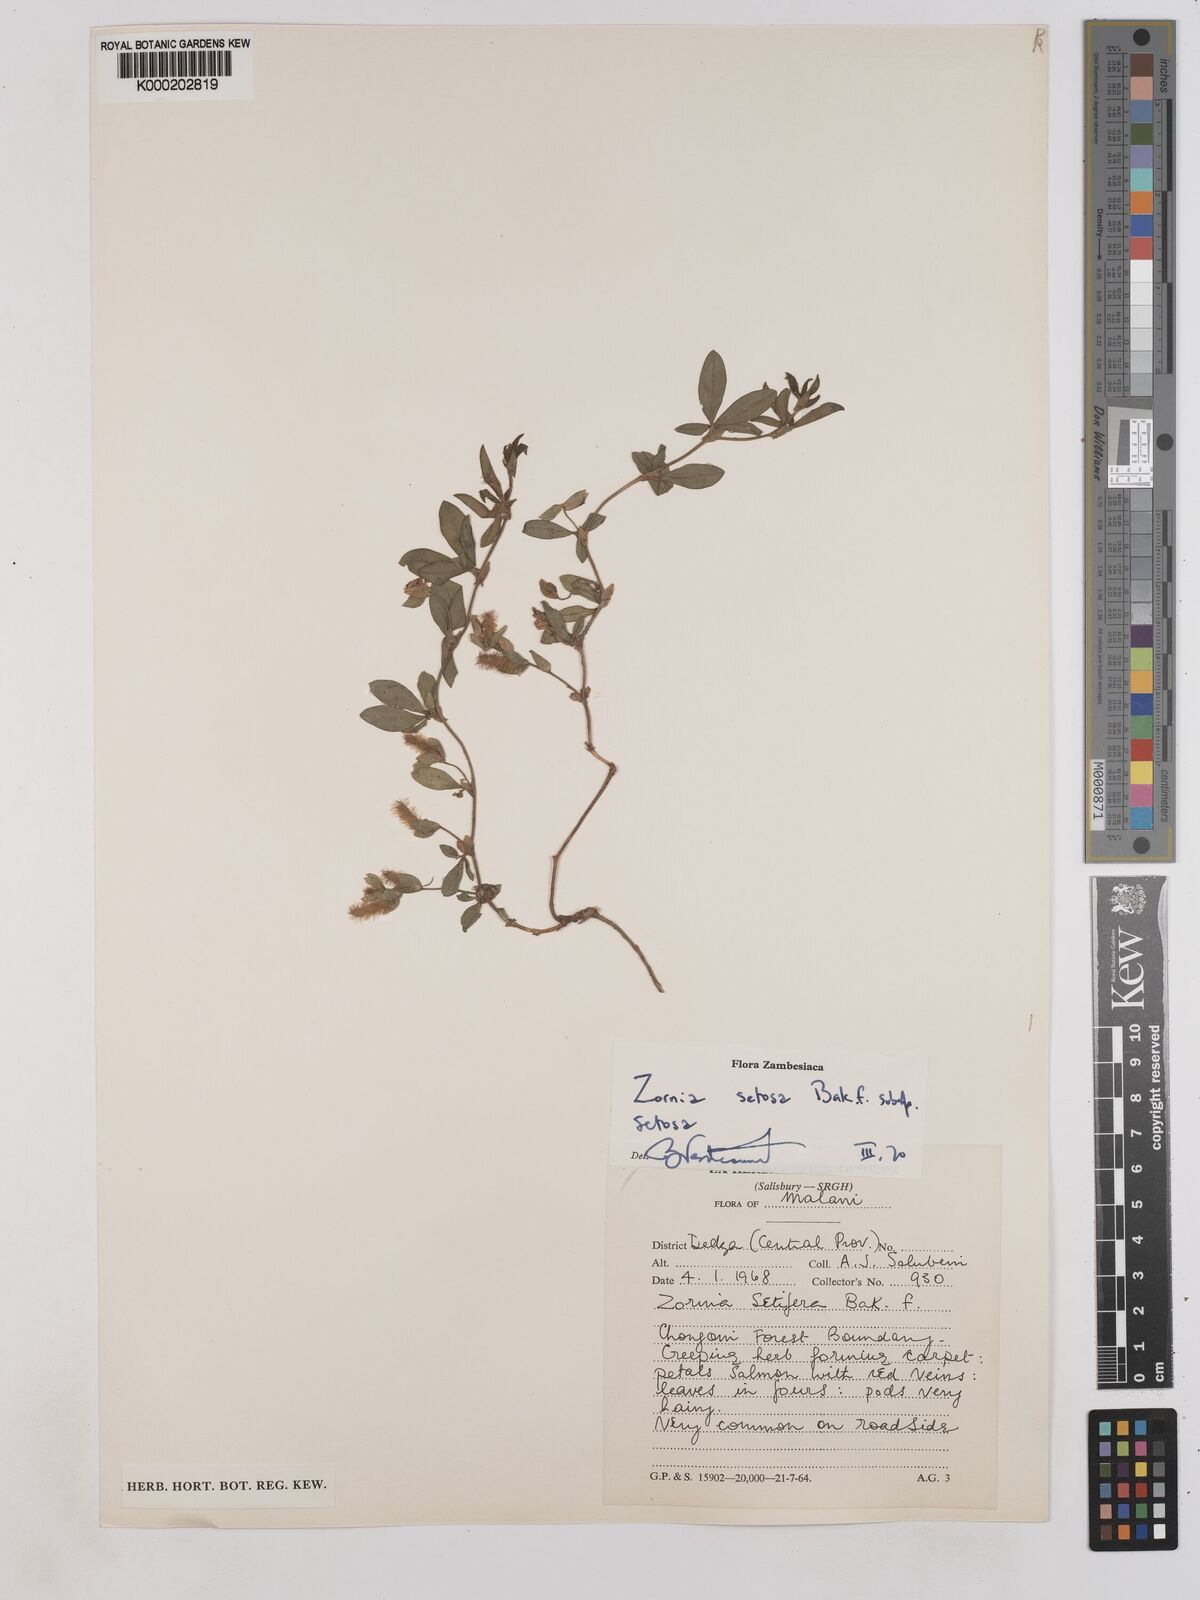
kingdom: Plantae
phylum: Tracheophyta
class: Magnoliopsida
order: Fabales
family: Fabaceae
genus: Zornia
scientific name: Zornia setosa
